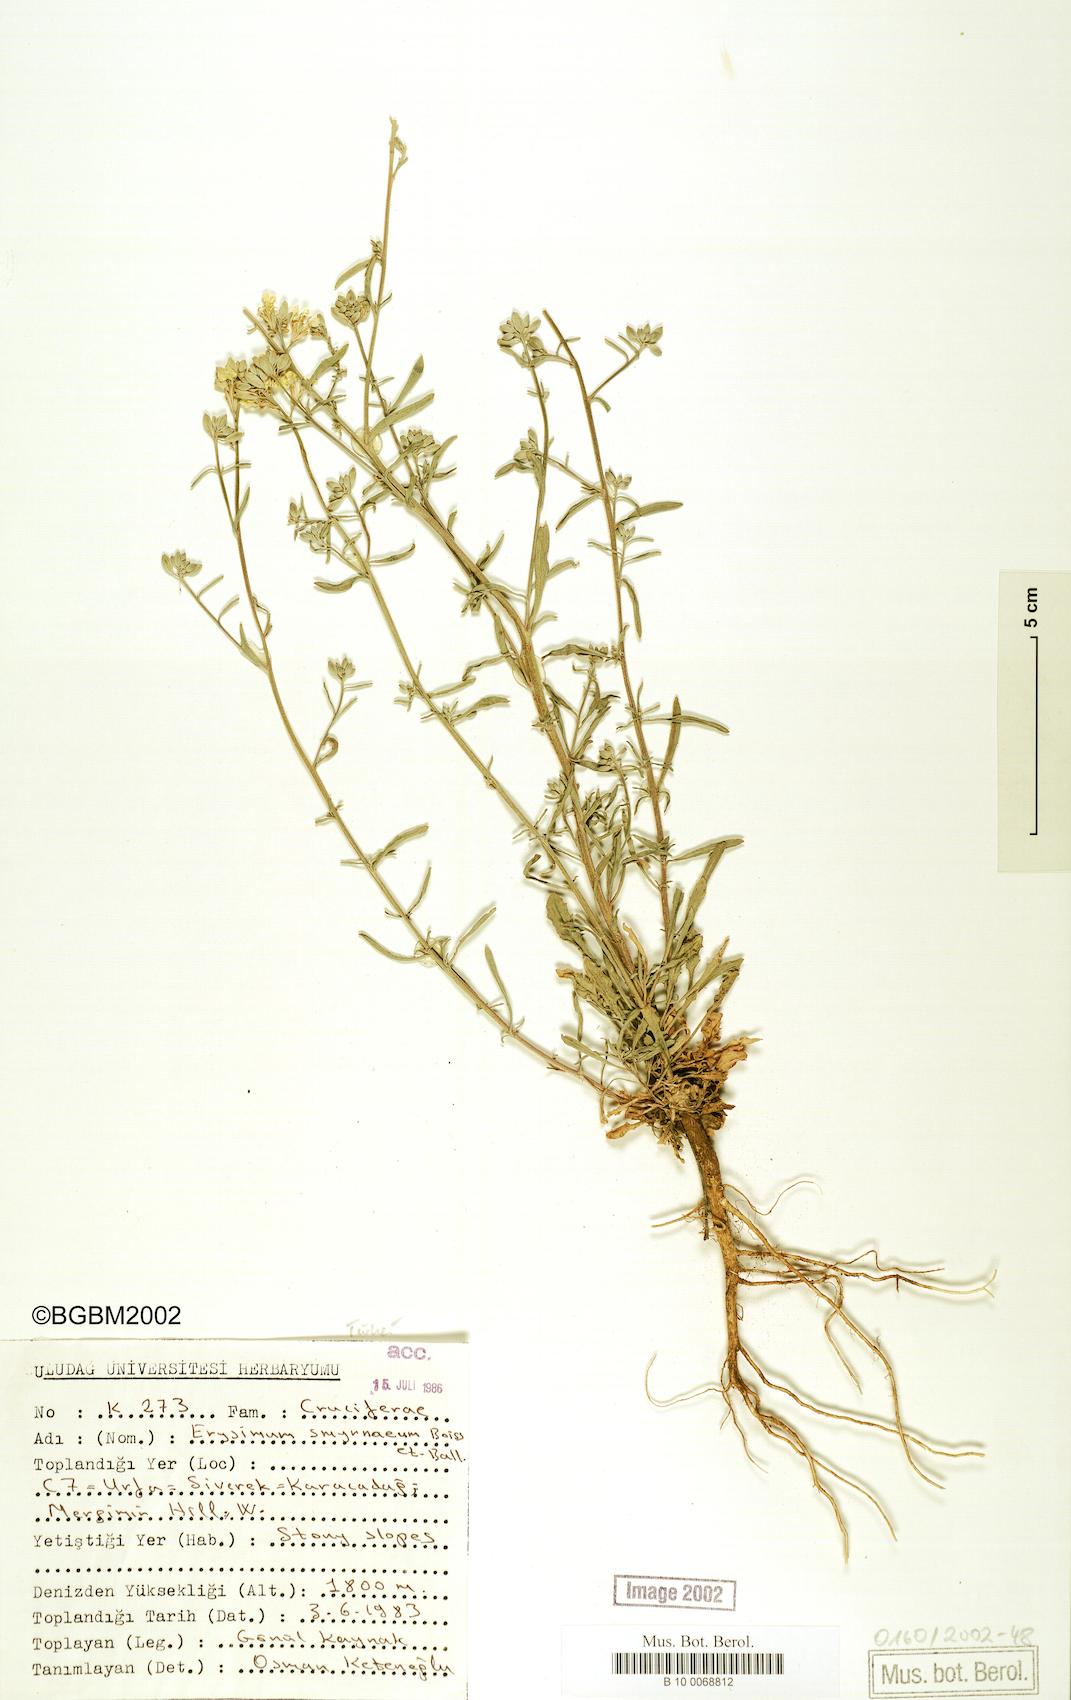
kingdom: Plantae
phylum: Tracheophyta
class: Magnoliopsida
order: Brassicales
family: Brassicaceae
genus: Erysimum
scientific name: Erysimum smyrnaeum
